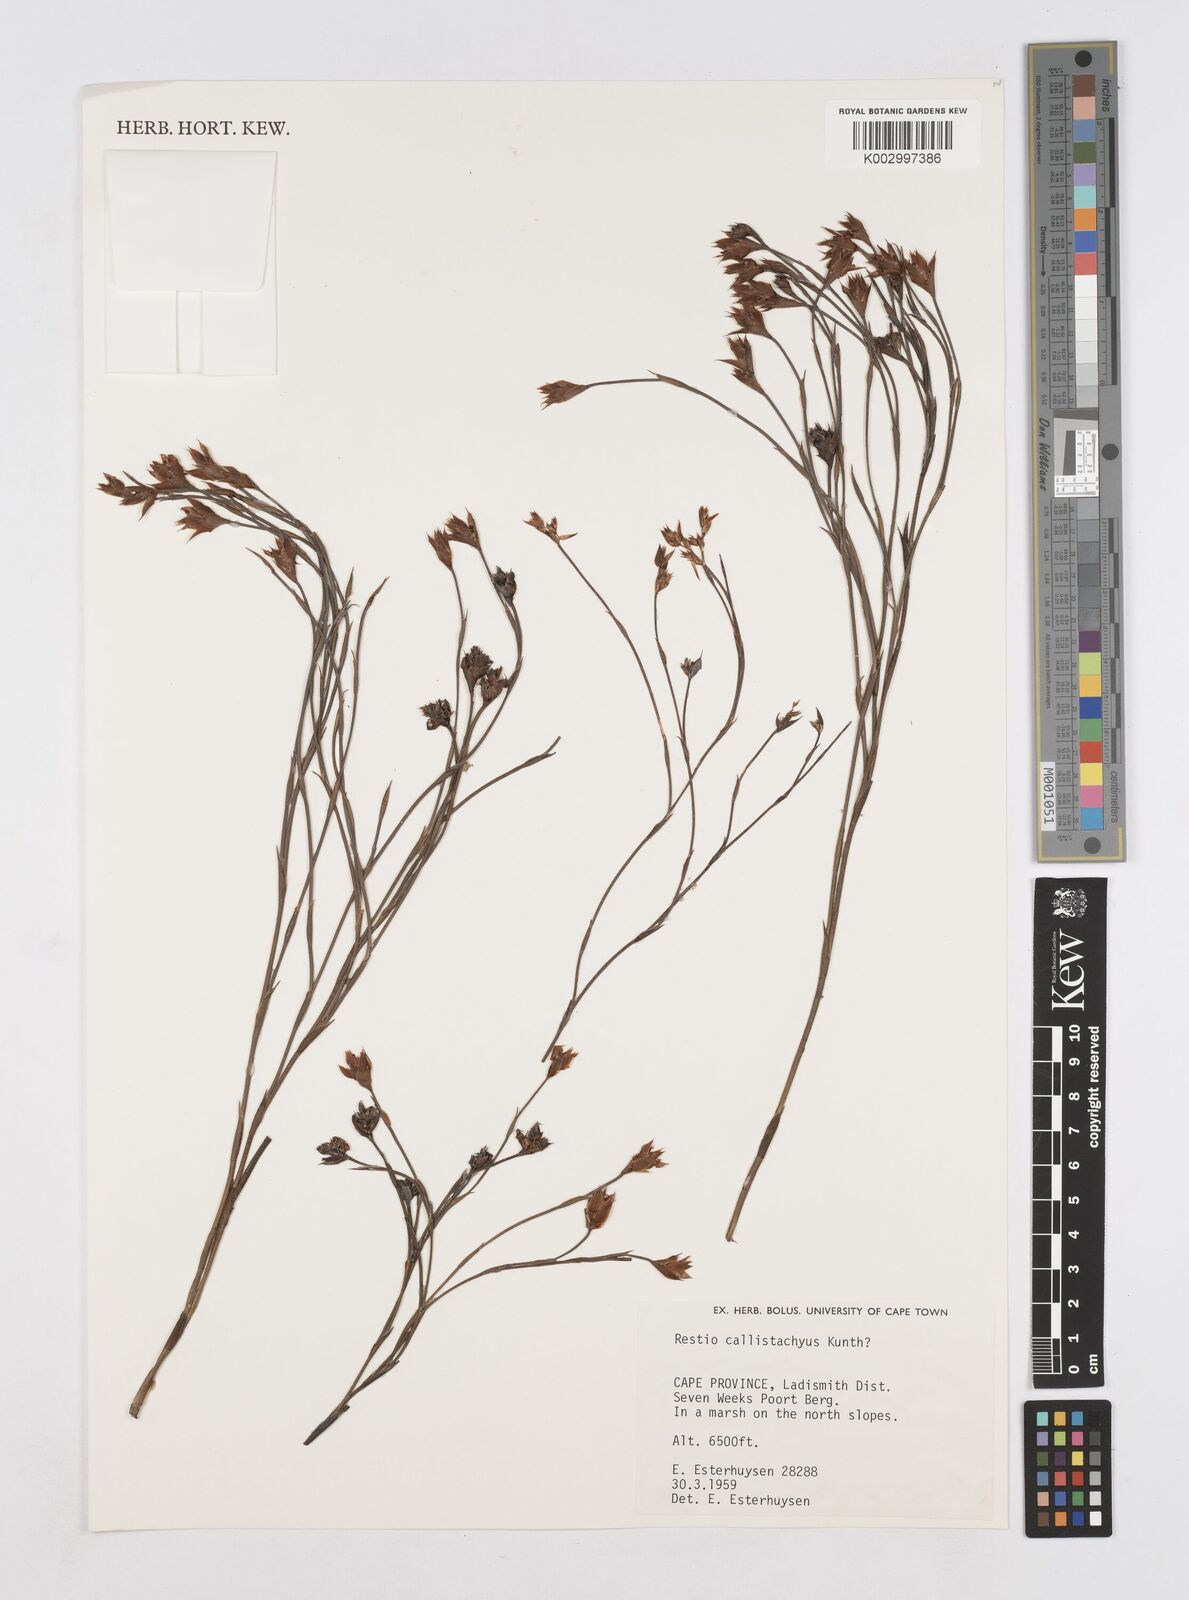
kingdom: Plantae
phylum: Tracheophyta
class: Liliopsida
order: Poales
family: Restionaceae
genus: Platycaulos
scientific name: Platycaulos callistachyus
